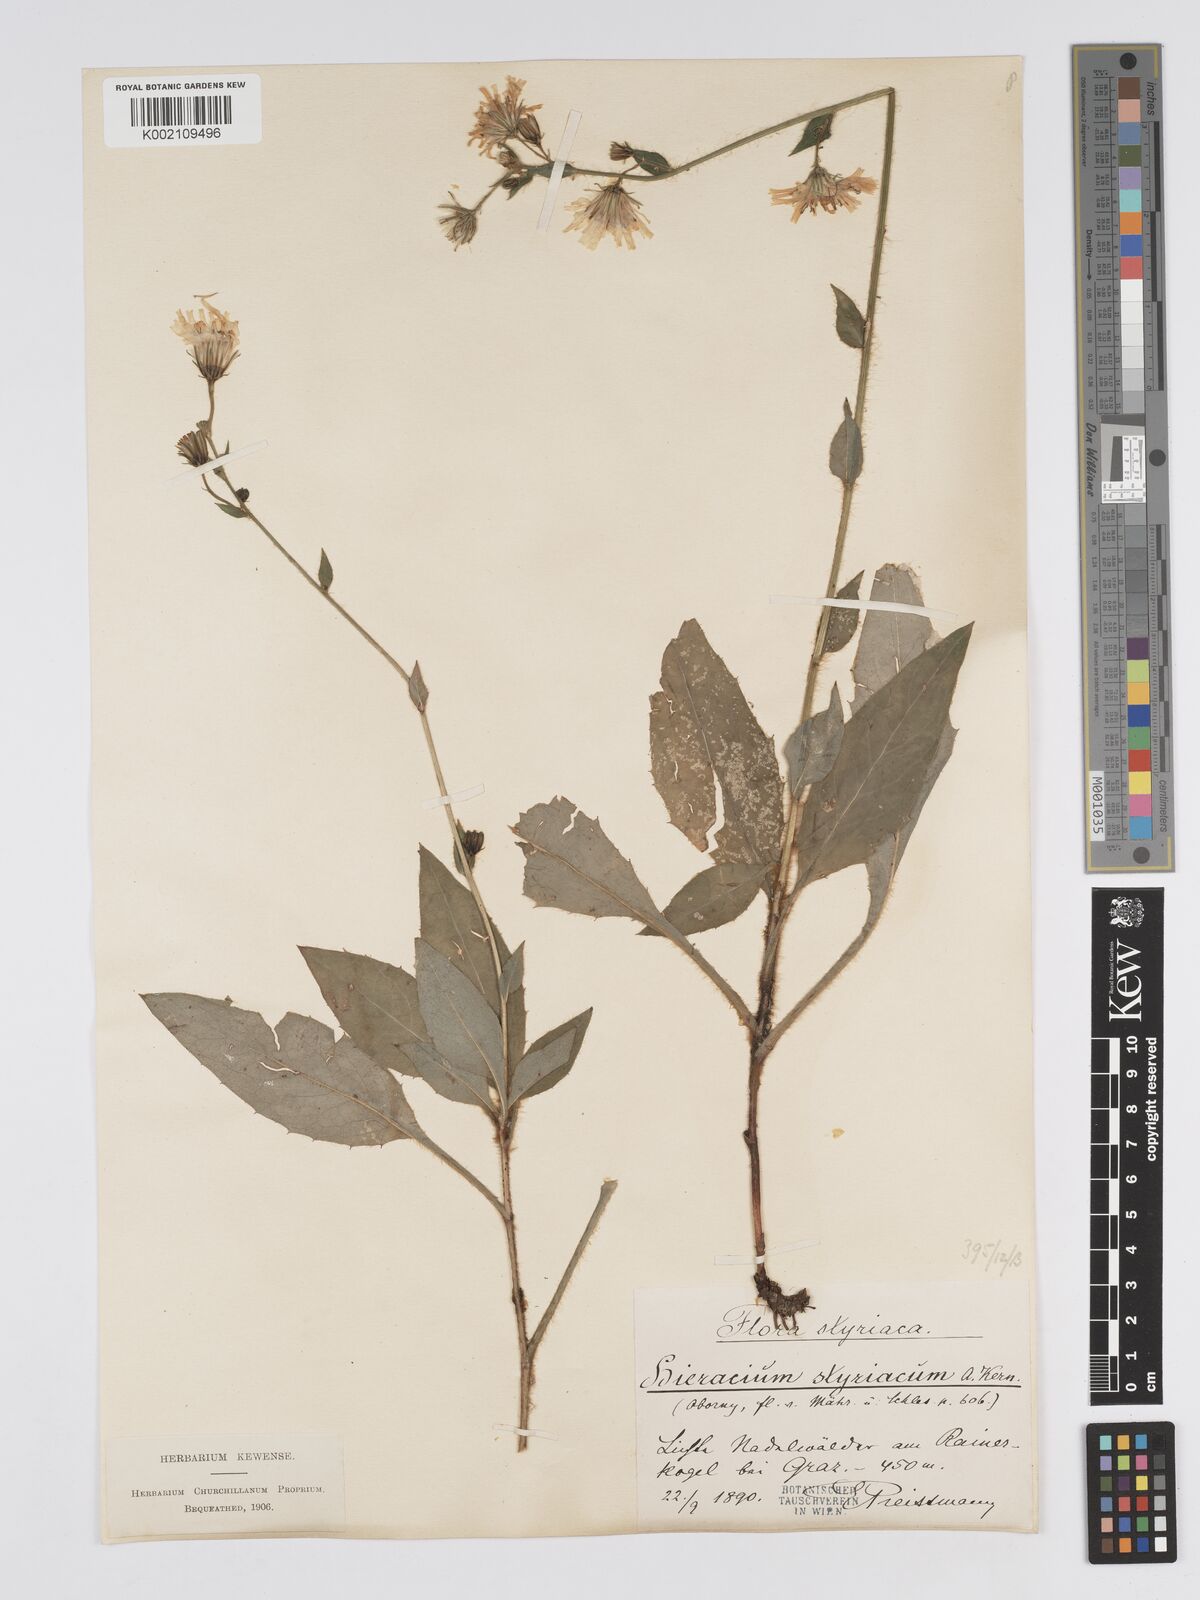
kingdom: Plantae
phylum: Tracheophyta
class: Magnoliopsida
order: Asterales
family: Asteraceae
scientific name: Asteraceae
